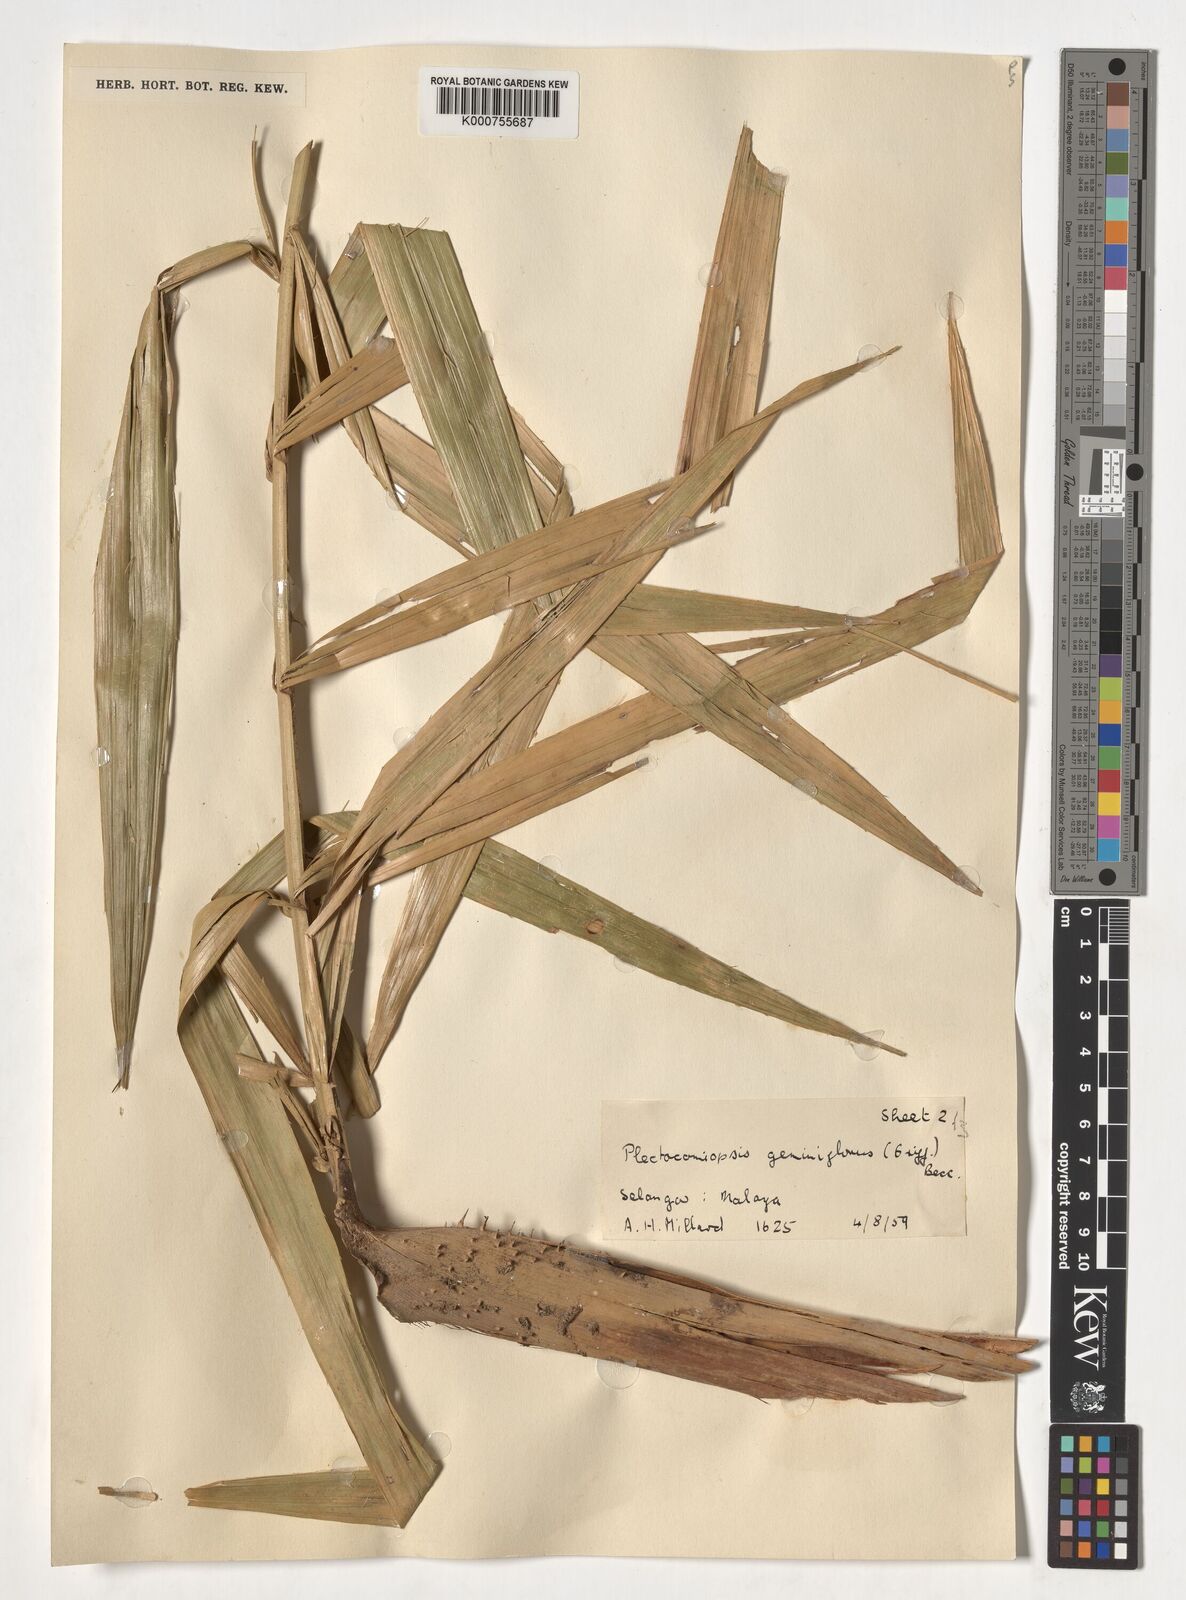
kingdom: Plantae
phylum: Tracheophyta
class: Liliopsida
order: Arecales
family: Arecaceae
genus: Plectocomiopsis
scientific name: Plectocomiopsis geminiflora
